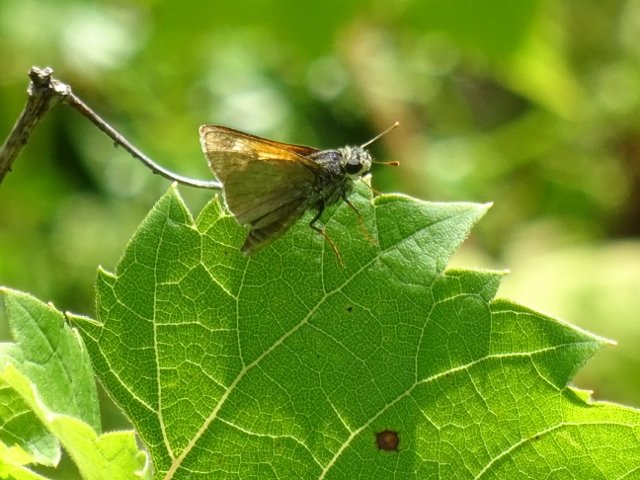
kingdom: Animalia
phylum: Arthropoda
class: Insecta
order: Lepidoptera
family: Hesperiidae
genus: Polites
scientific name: Polites themistocles
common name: Tawny-edged Skipper
